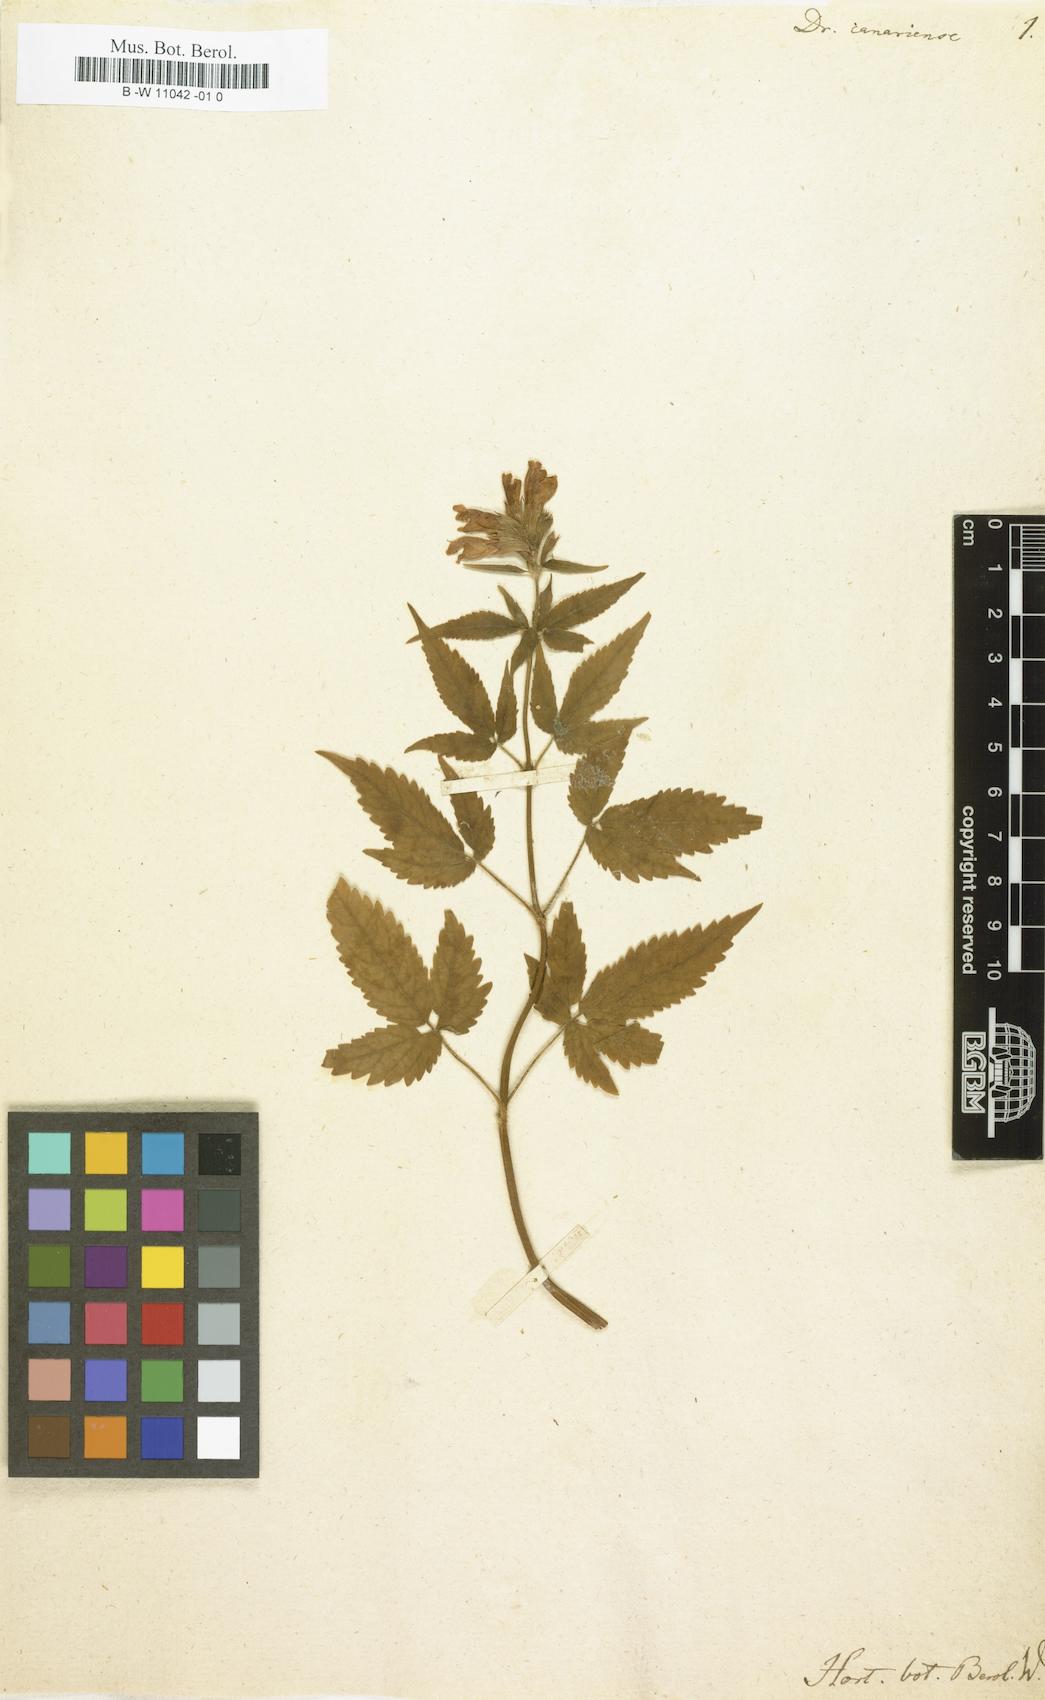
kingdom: Plantae
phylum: Tracheophyta
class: Magnoliopsida
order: Lamiales
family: Lamiaceae
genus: Cedronella
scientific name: Cedronella canariensis
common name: Canary islands balm
